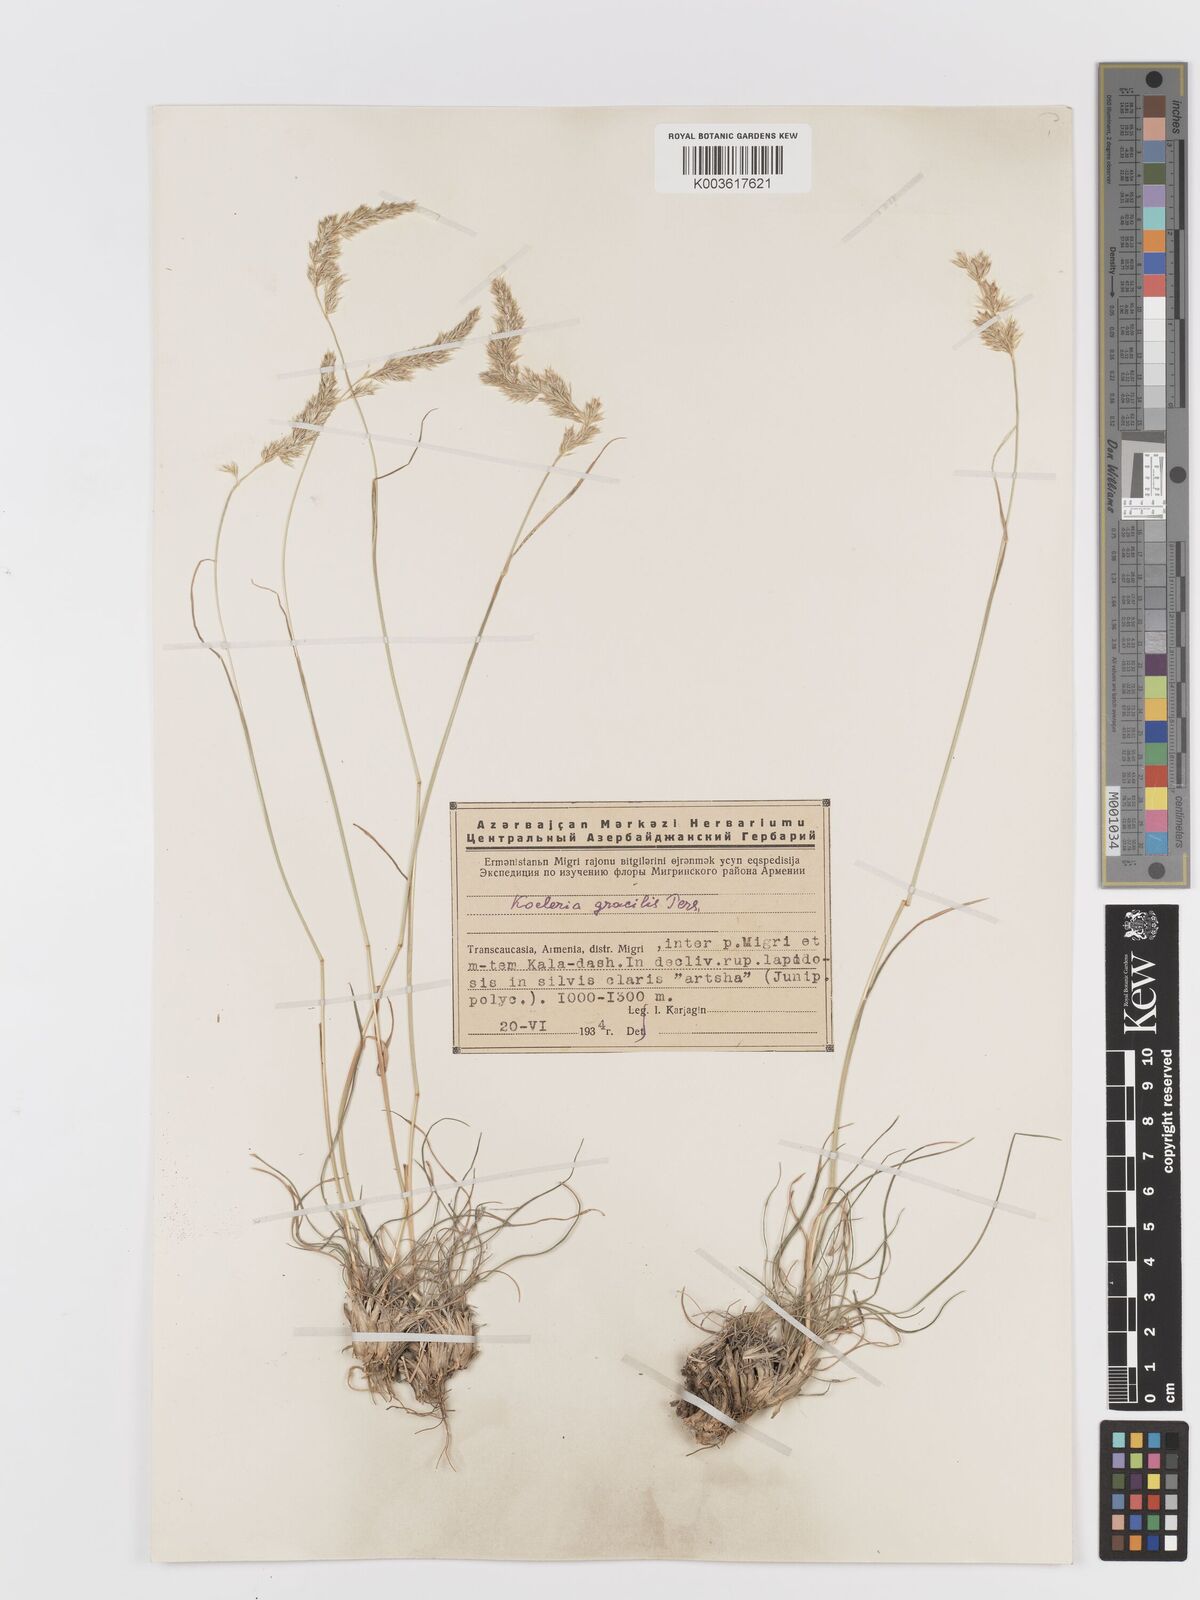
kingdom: Plantae
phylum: Tracheophyta
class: Liliopsida
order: Poales
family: Poaceae
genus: Koeleria
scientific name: Koeleria macrantha
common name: Crested hair-grass
